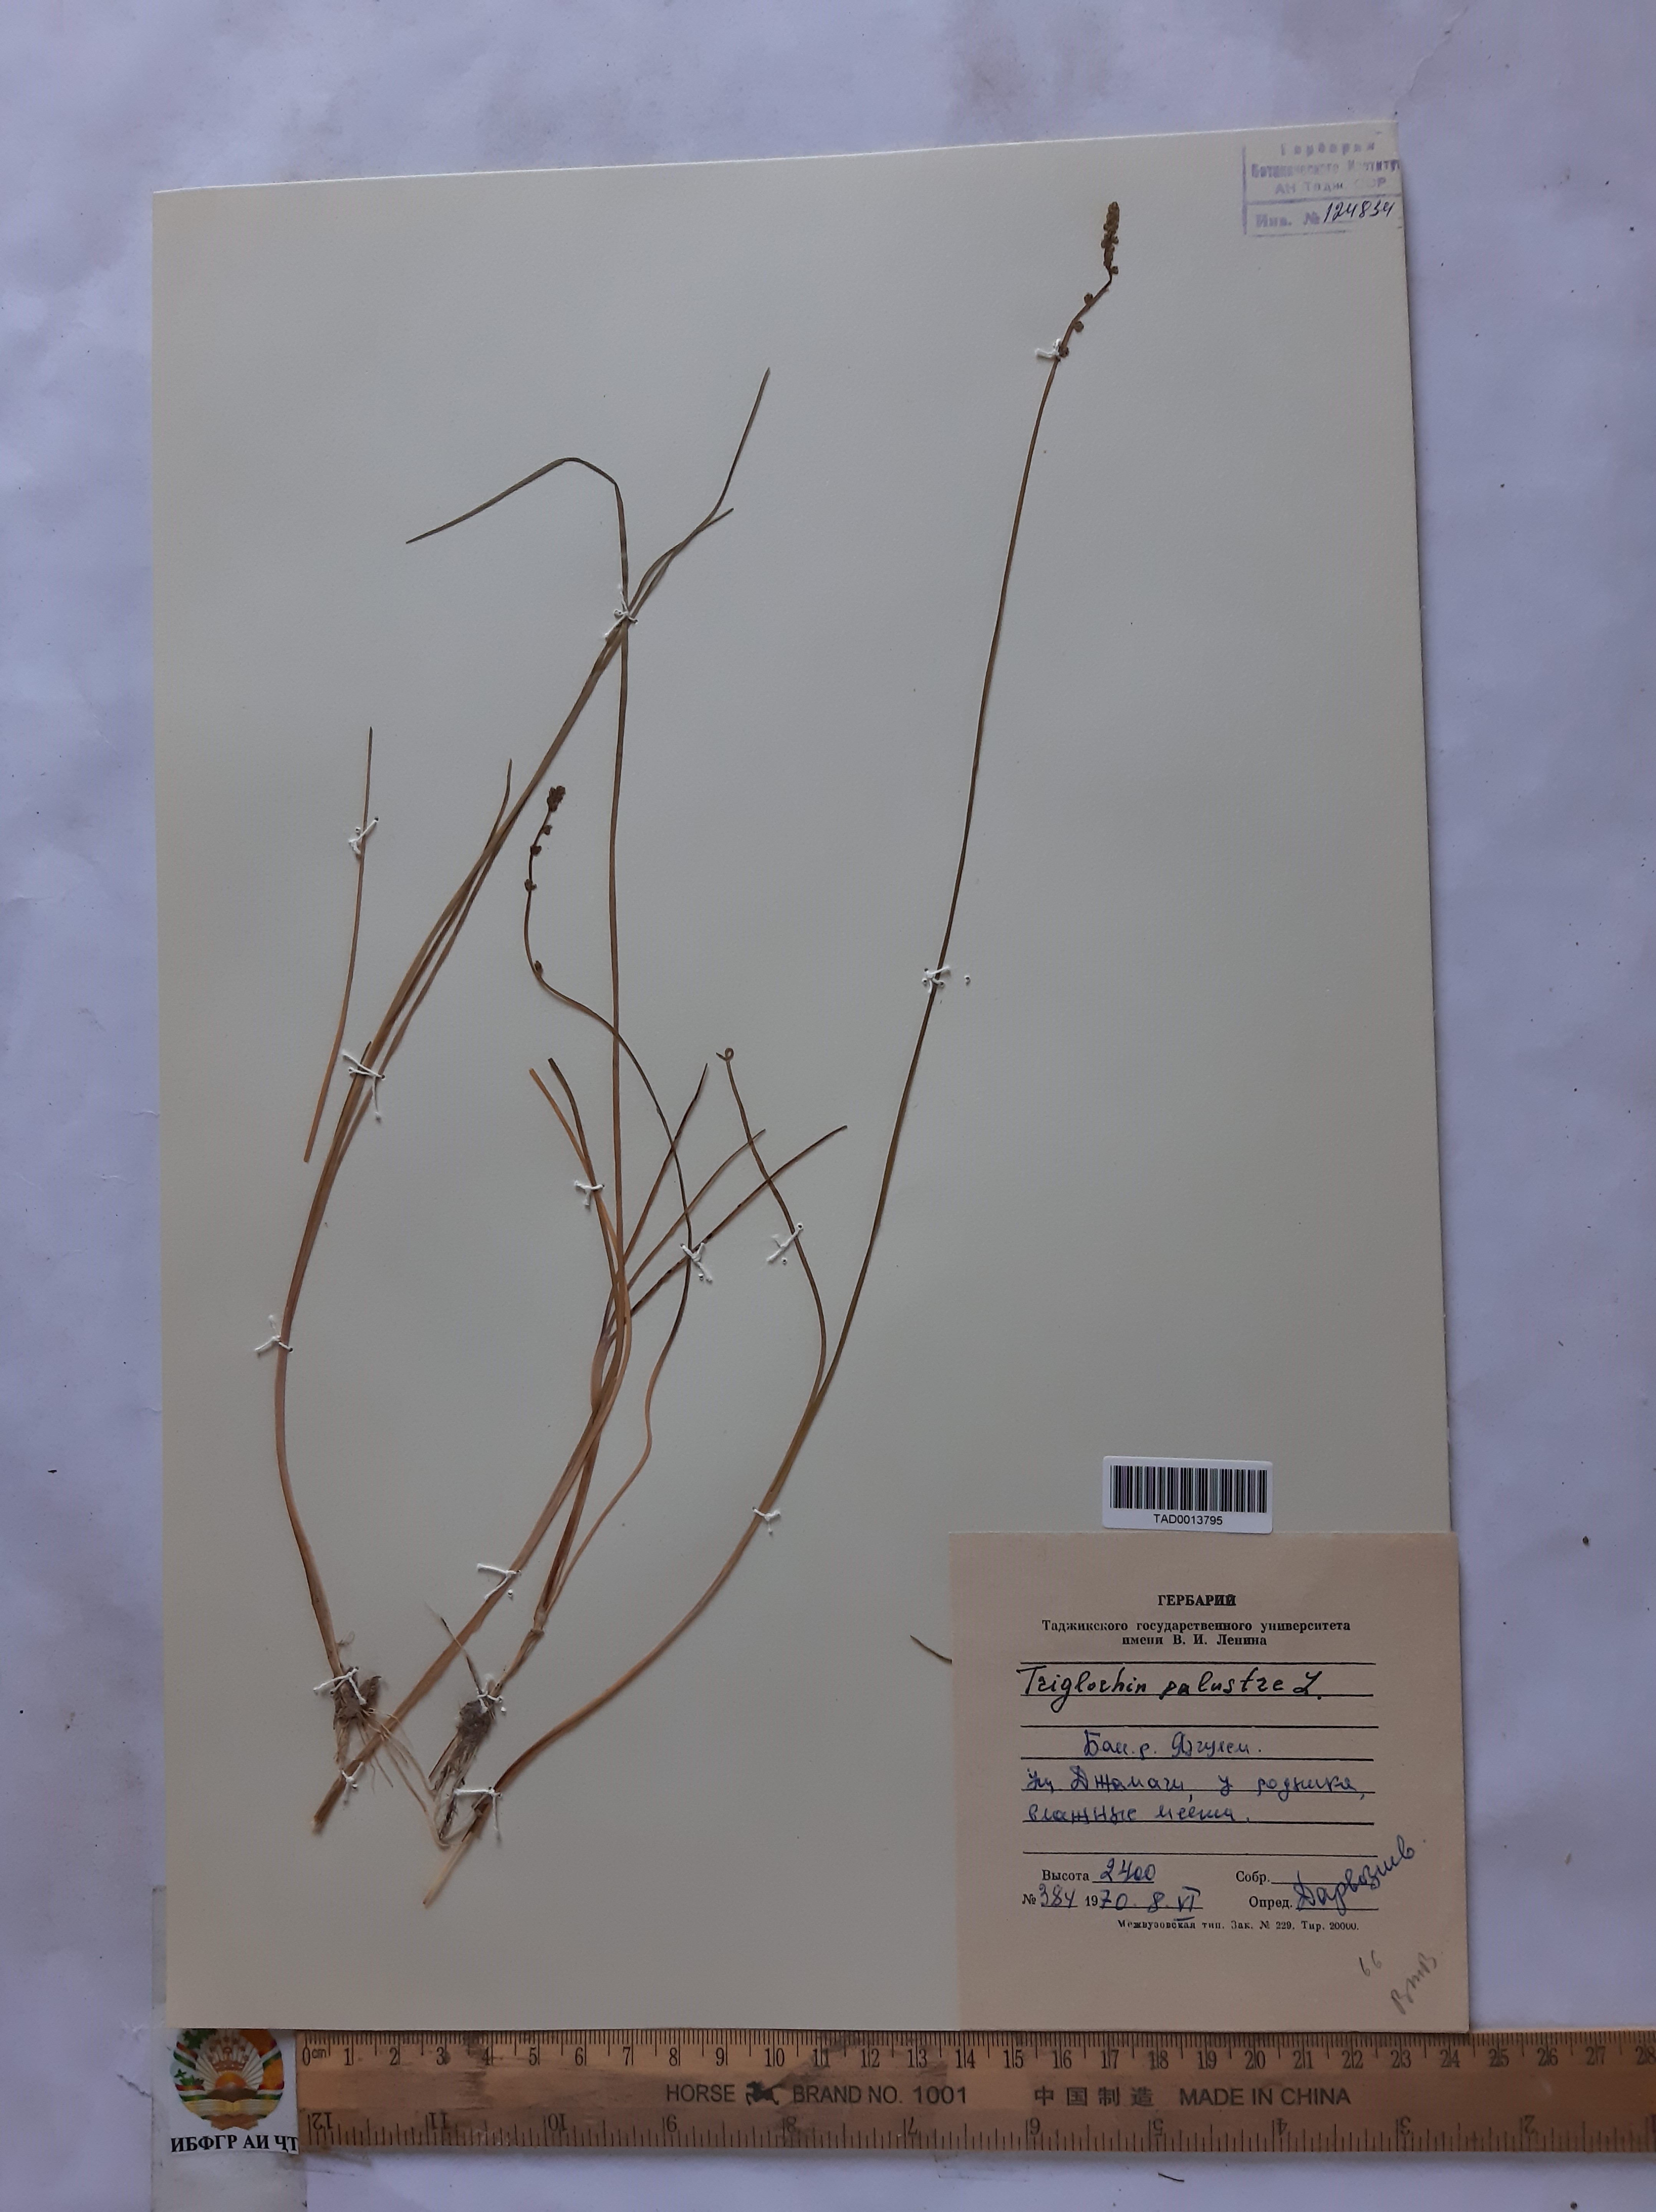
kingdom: Plantae
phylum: Tracheophyta
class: Liliopsida
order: Alismatales
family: Juncaginaceae
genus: Triglochin
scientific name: Triglochin palustris
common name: Marsh arrowgrass
